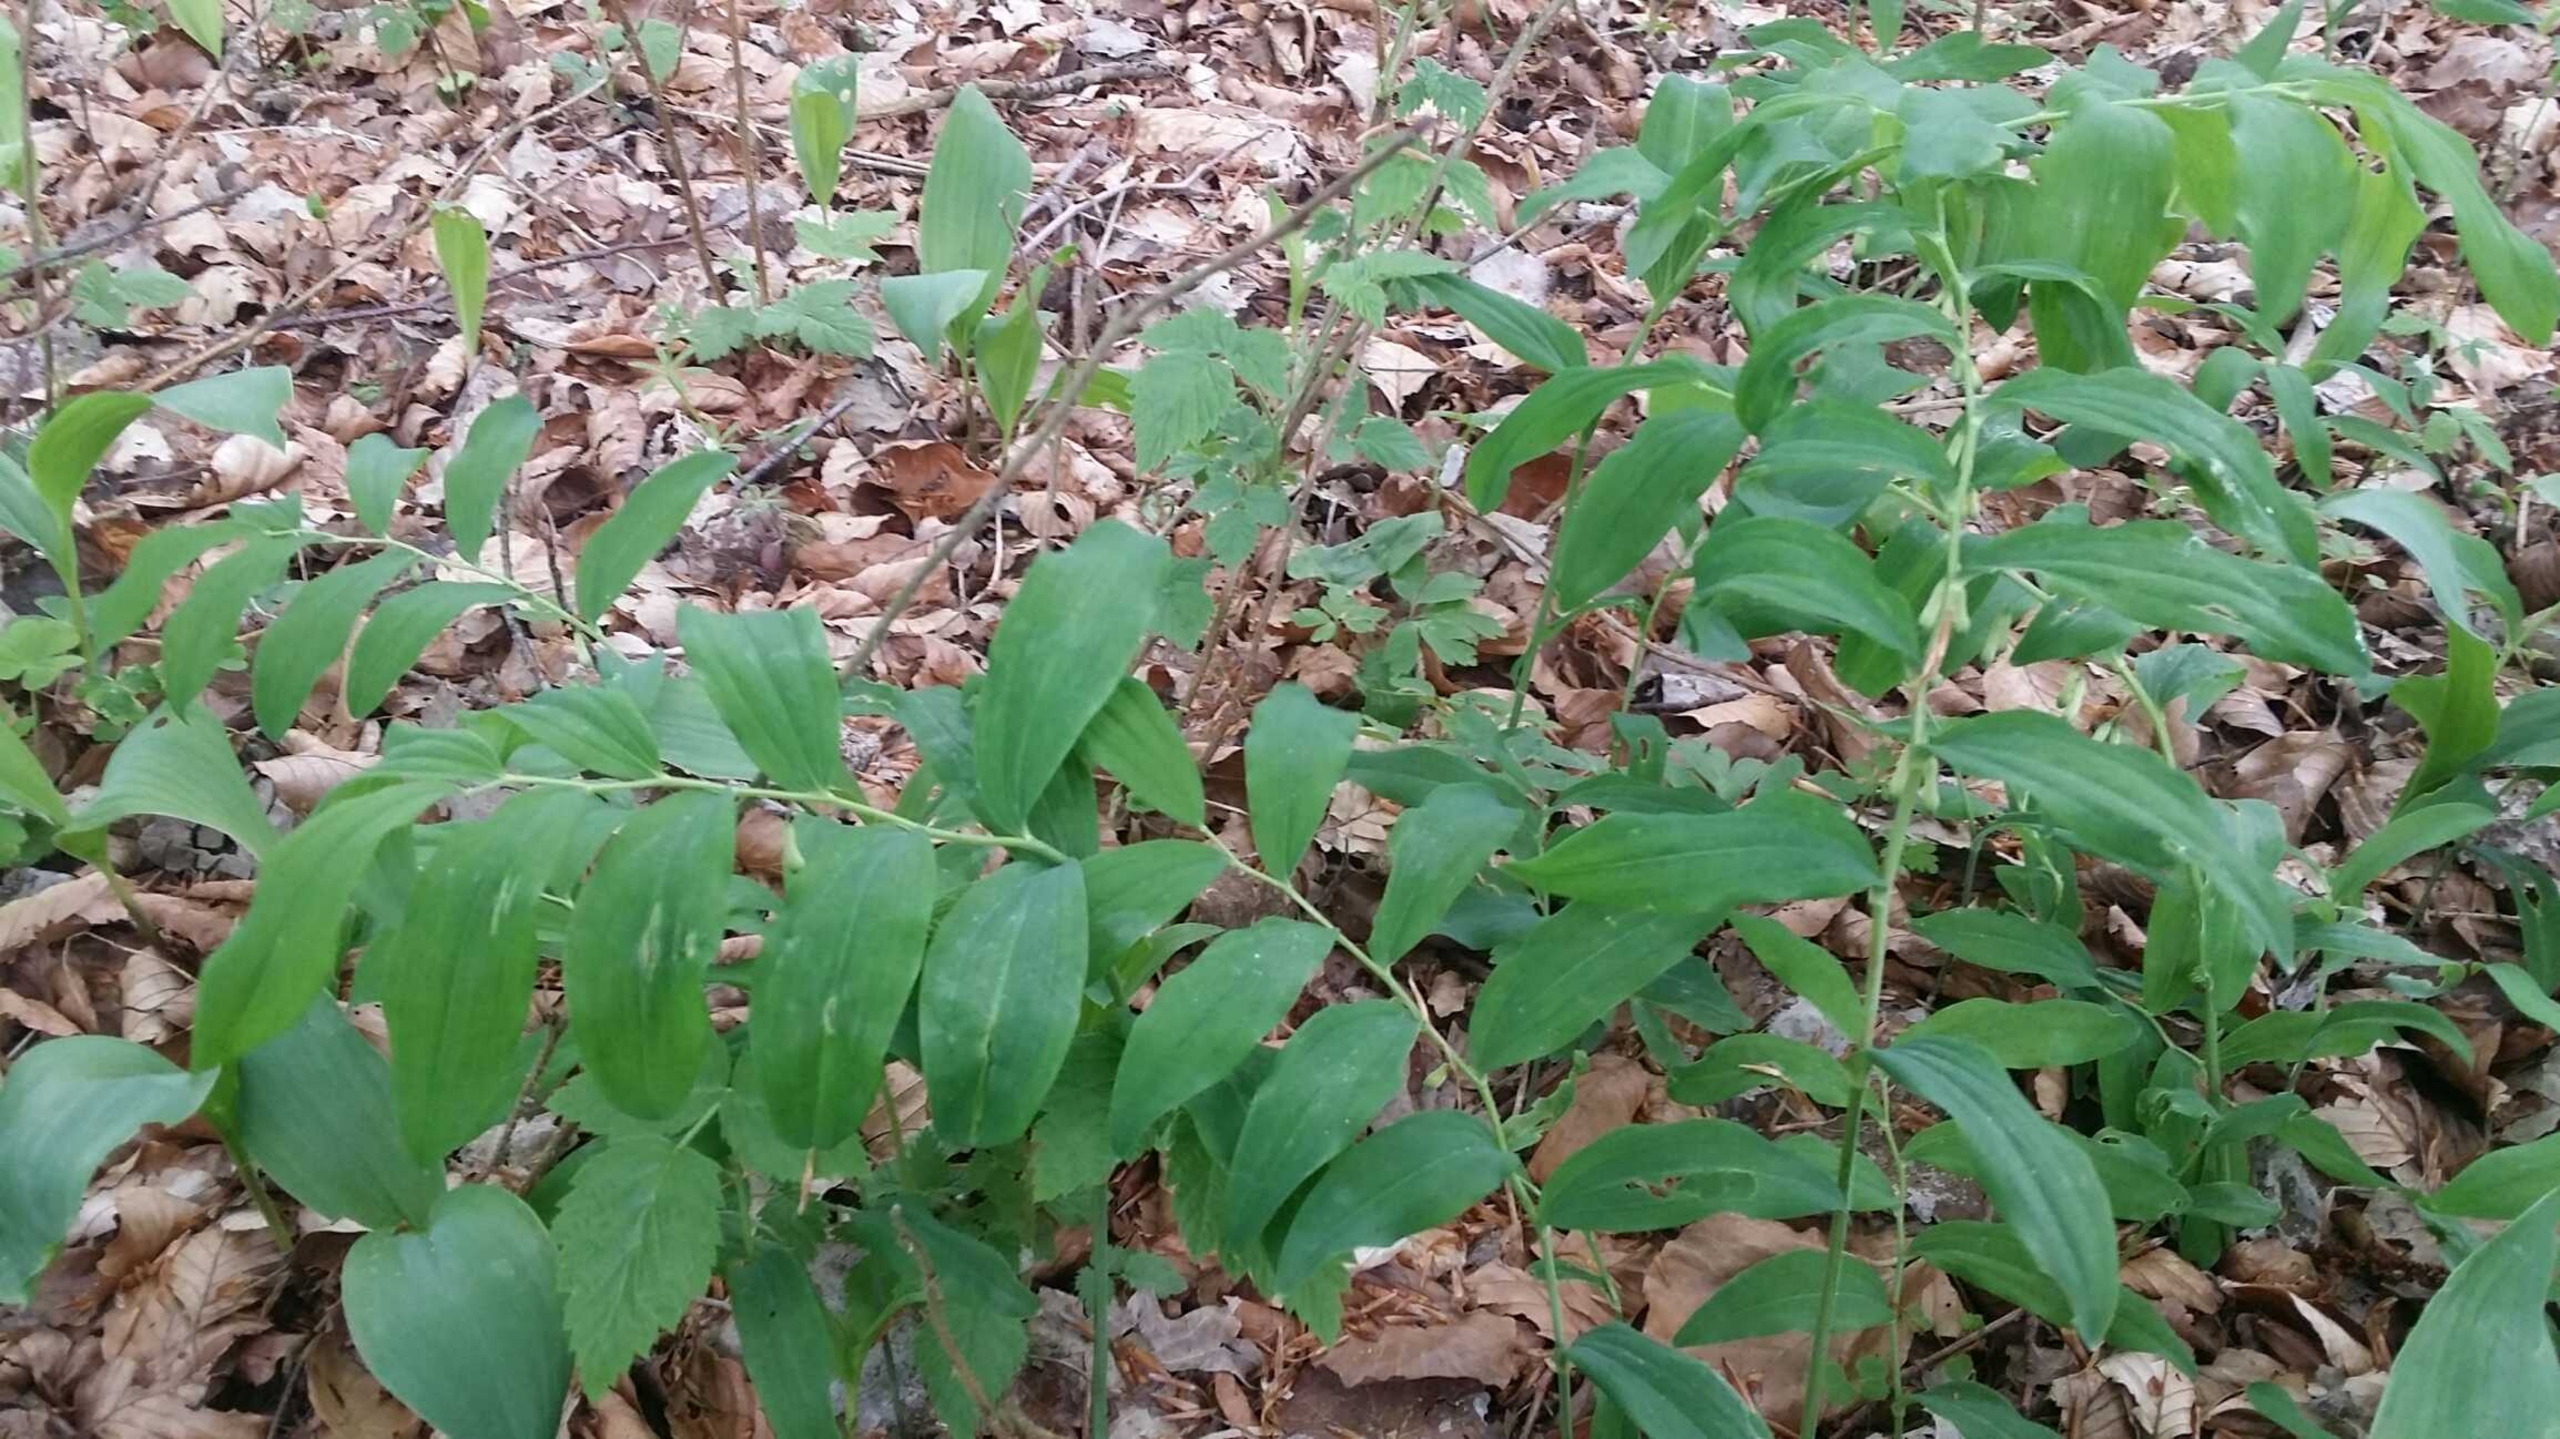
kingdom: Plantae
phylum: Tracheophyta
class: Liliopsida
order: Asparagales
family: Asparagaceae
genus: Polygonatum
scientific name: Polygonatum multiflorum
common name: Stor konval
